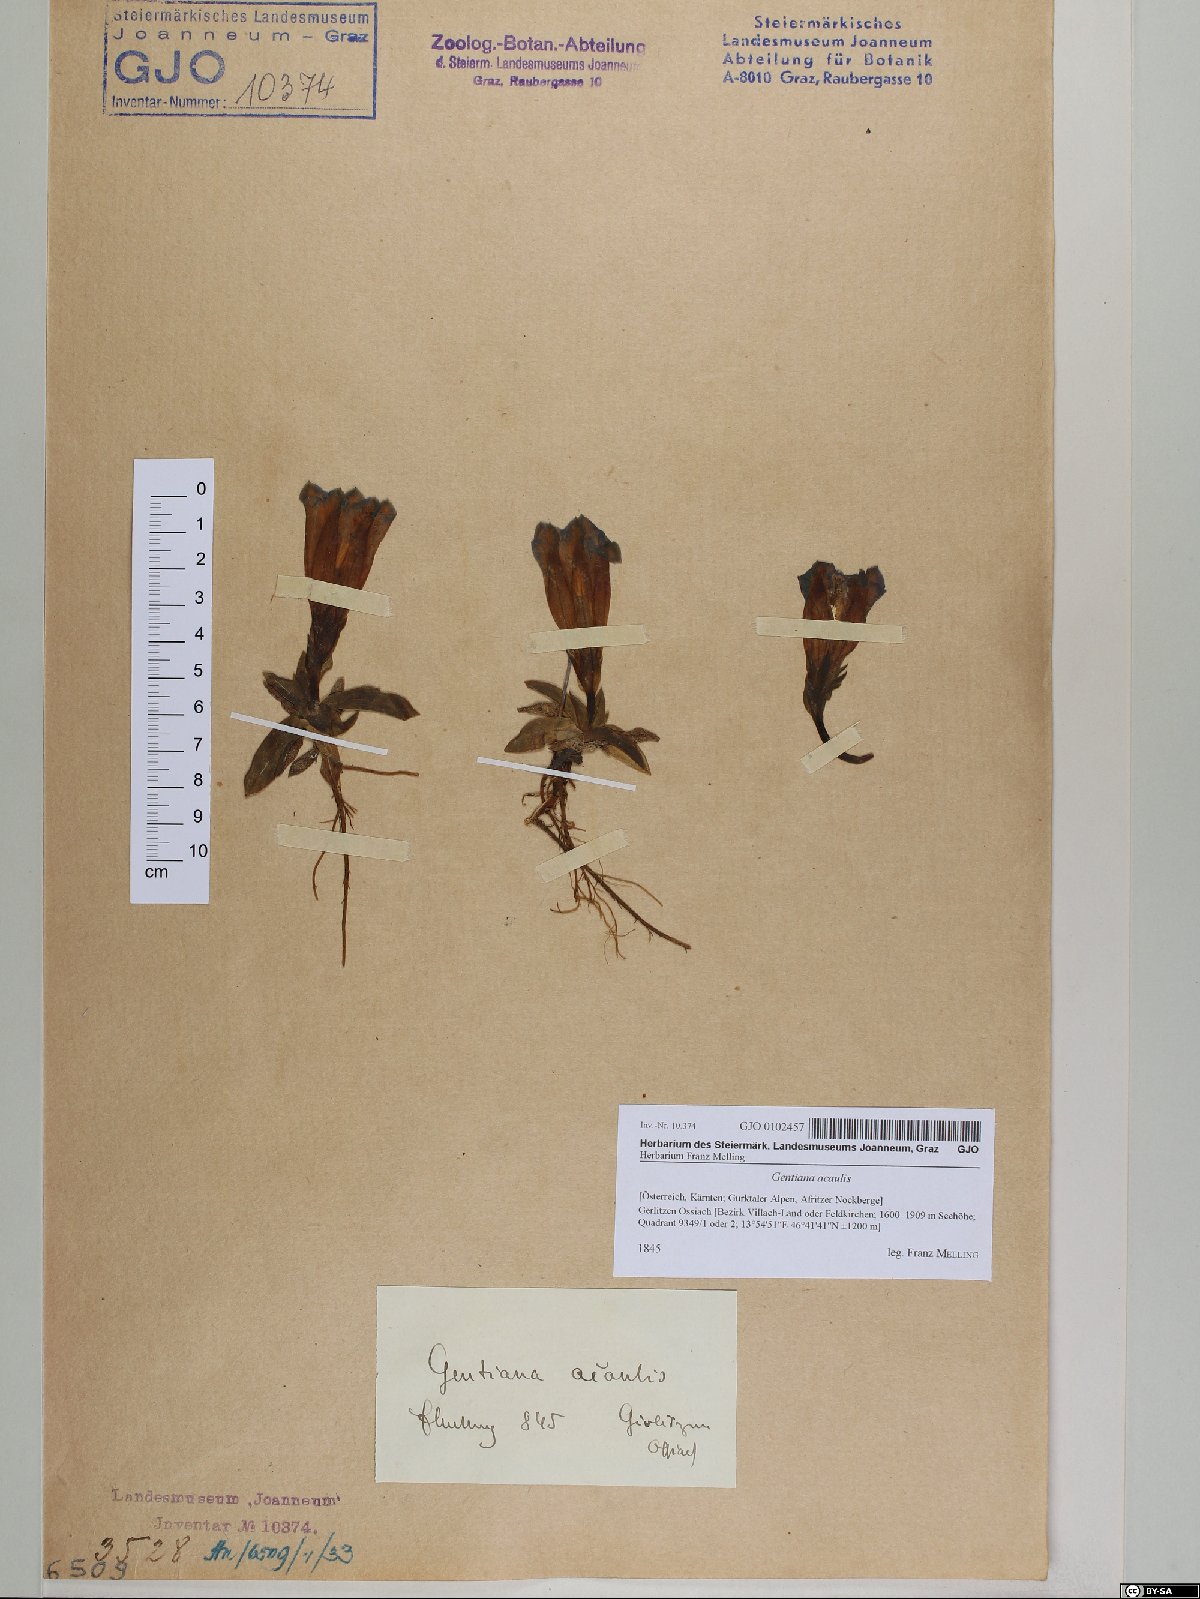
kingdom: Plantae
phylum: Tracheophyta
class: Magnoliopsida
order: Gentianales
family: Gentianaceae
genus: Gentiana
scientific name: Gentiana acaulis
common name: Trumpet gentian
